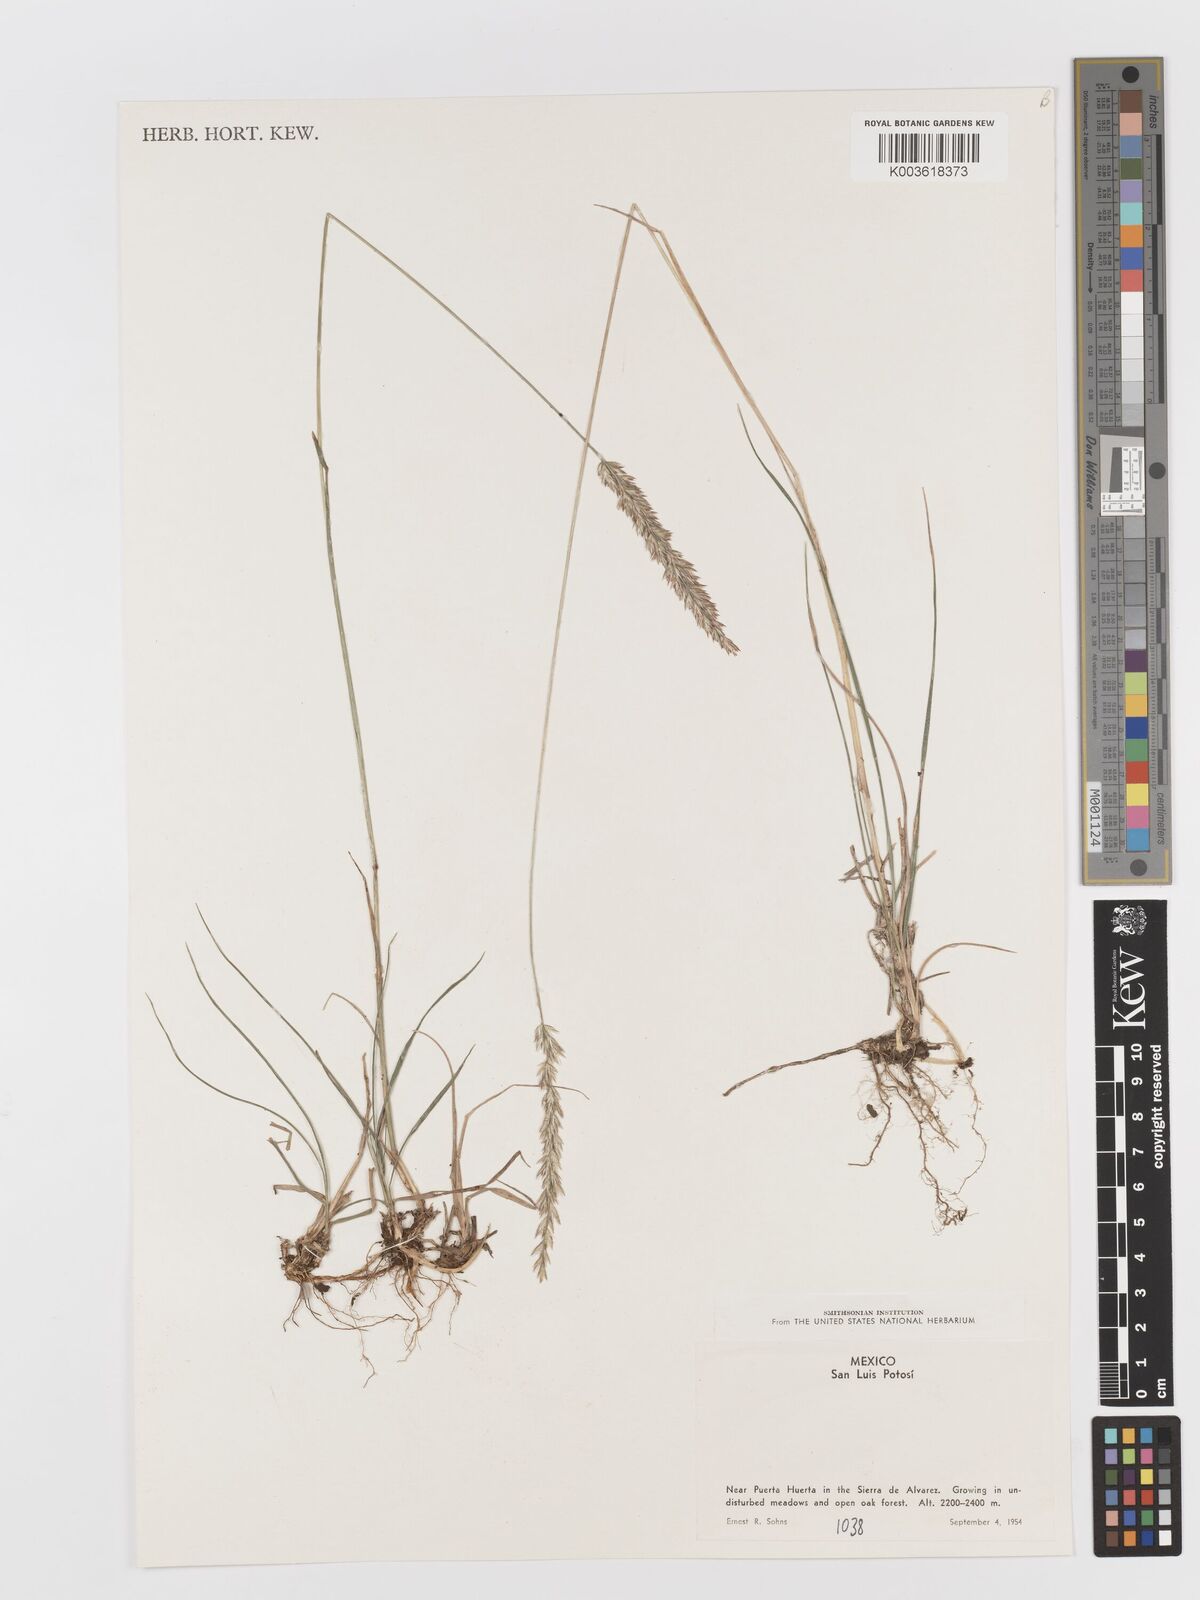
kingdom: Plantae
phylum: Tracheophyta
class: Liliopsida
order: Poales
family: Poaceae
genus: Koeleria
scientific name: Koeleria pyramidata
